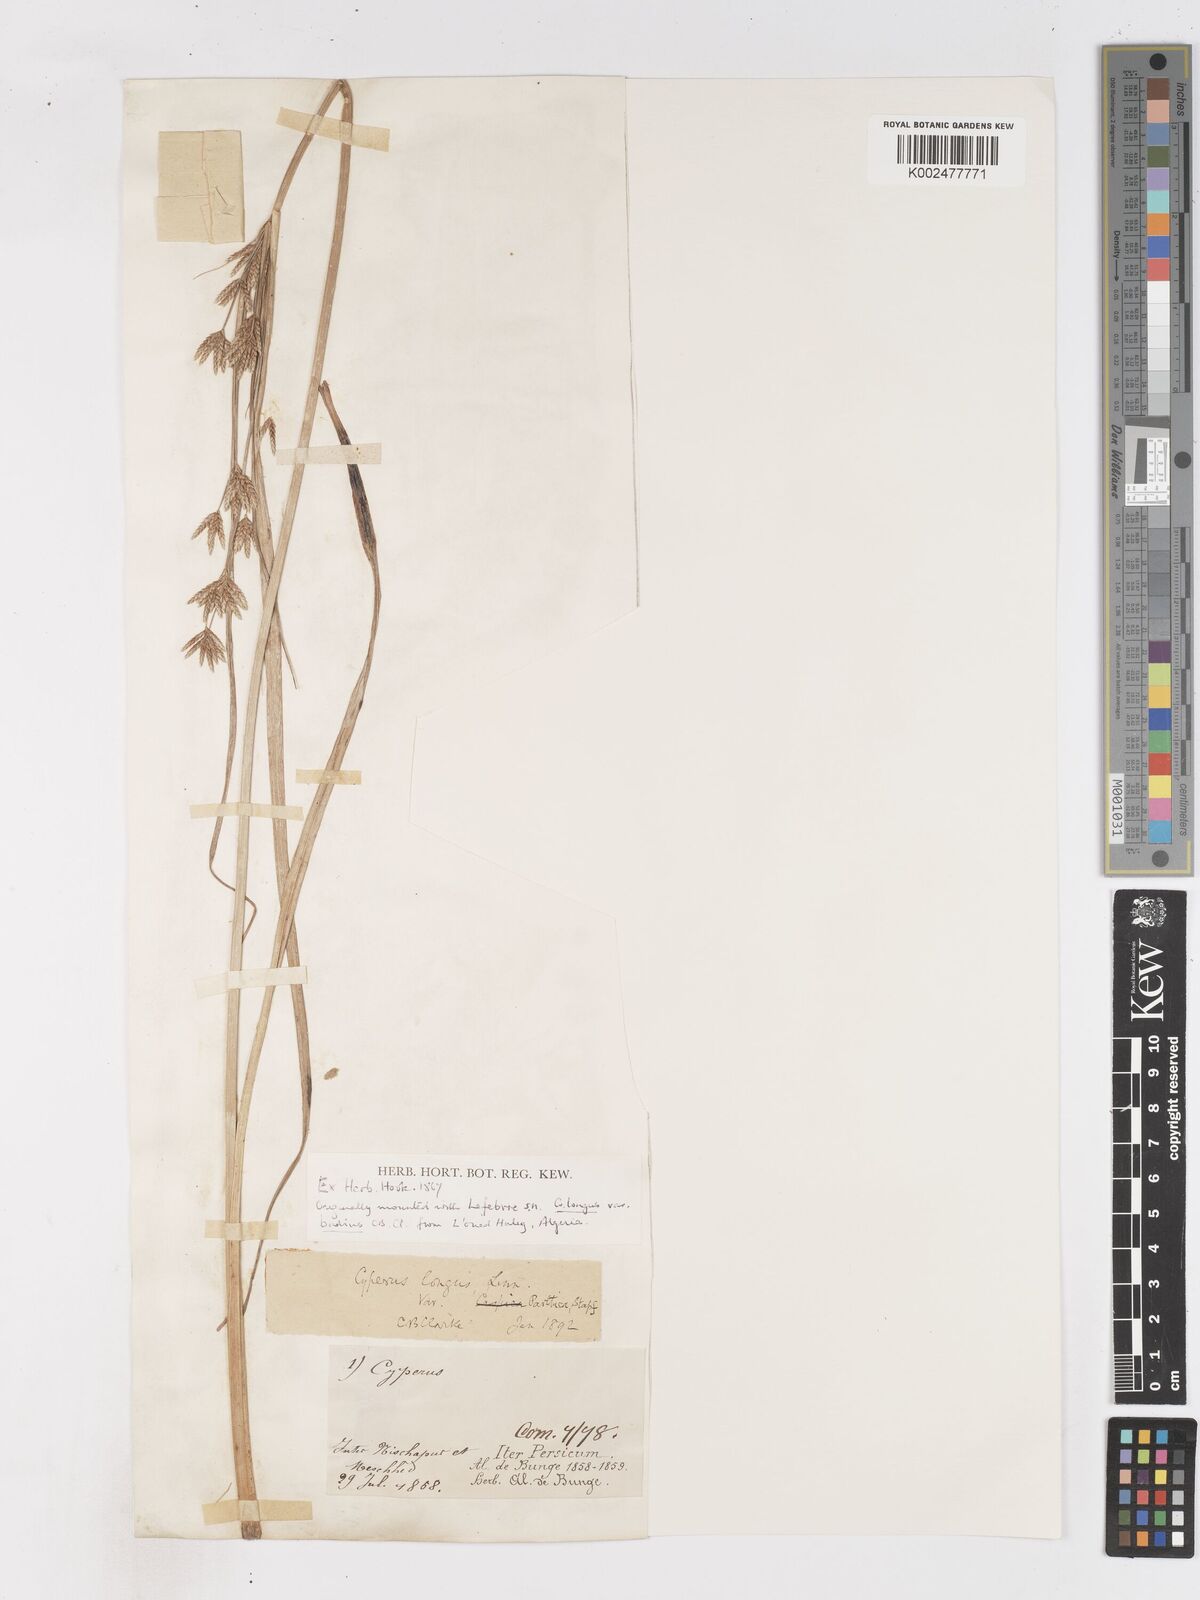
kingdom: Plantae
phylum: Tracheophyta
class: Liliopsida
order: Poales
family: Cyperaceae
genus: Cyperus
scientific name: Cyperus longus
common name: Galingale
